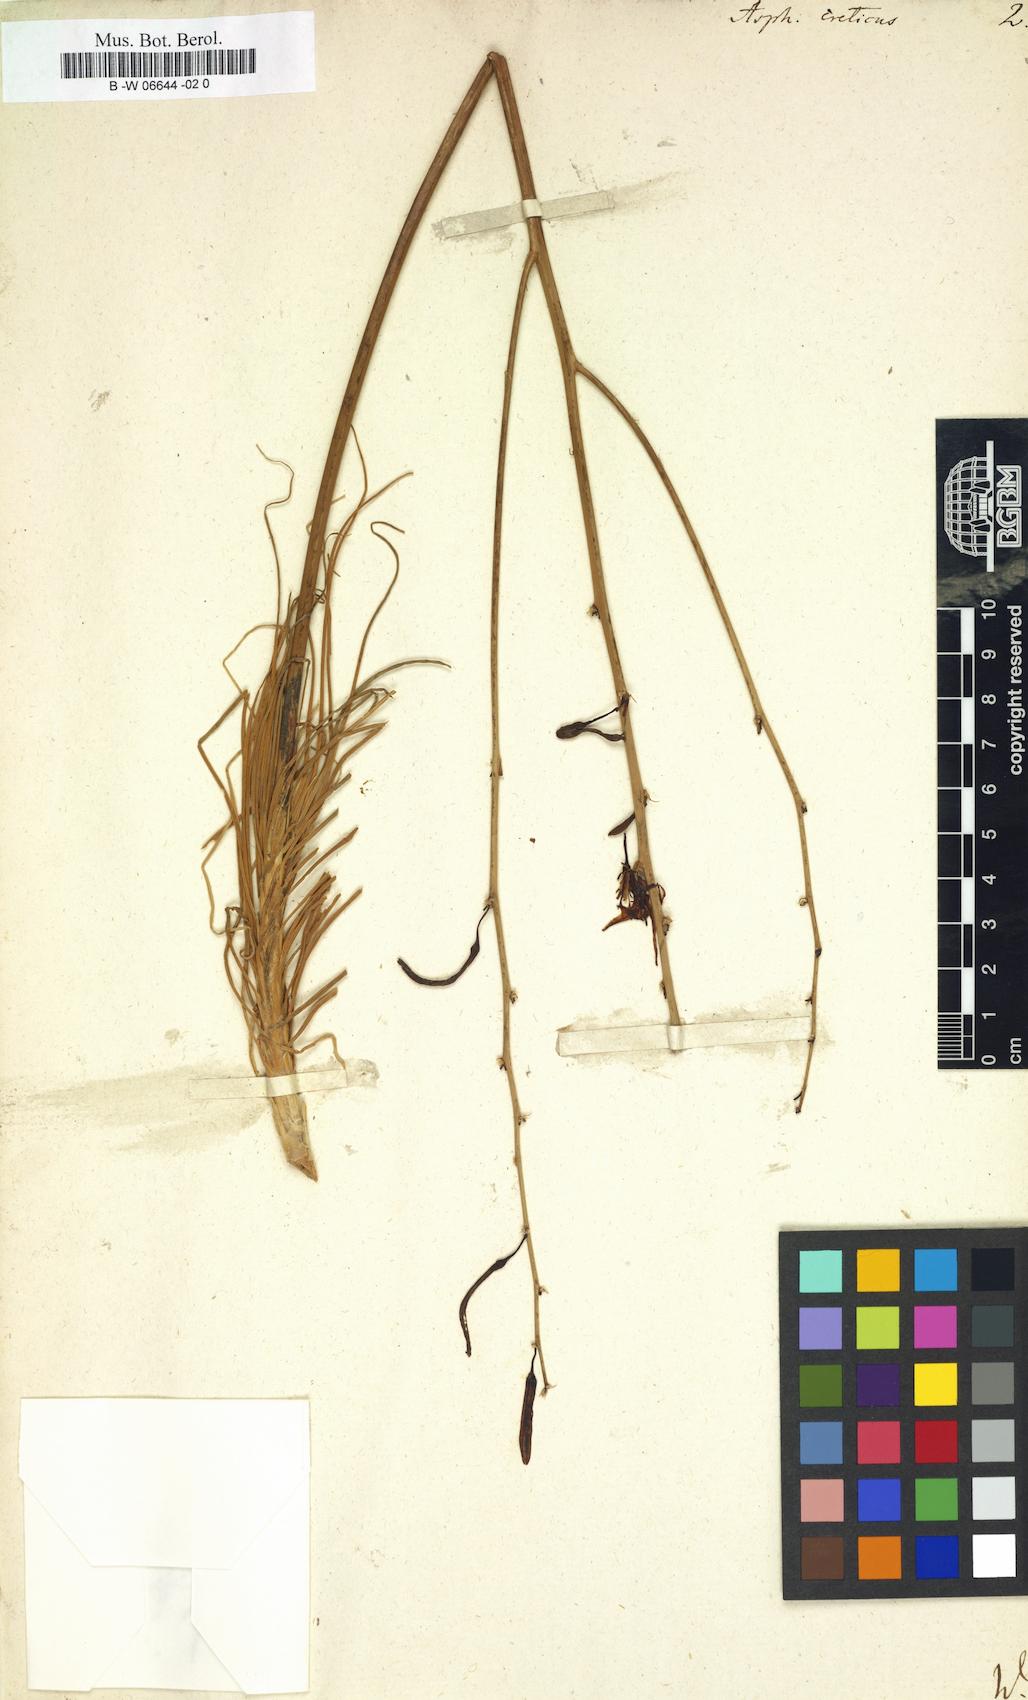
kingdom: Plantae
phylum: Tracheophyta
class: Liliopsida
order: Asparagales
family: Asphodelaceae
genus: Asphodeline
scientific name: Asphodeline liburnica
